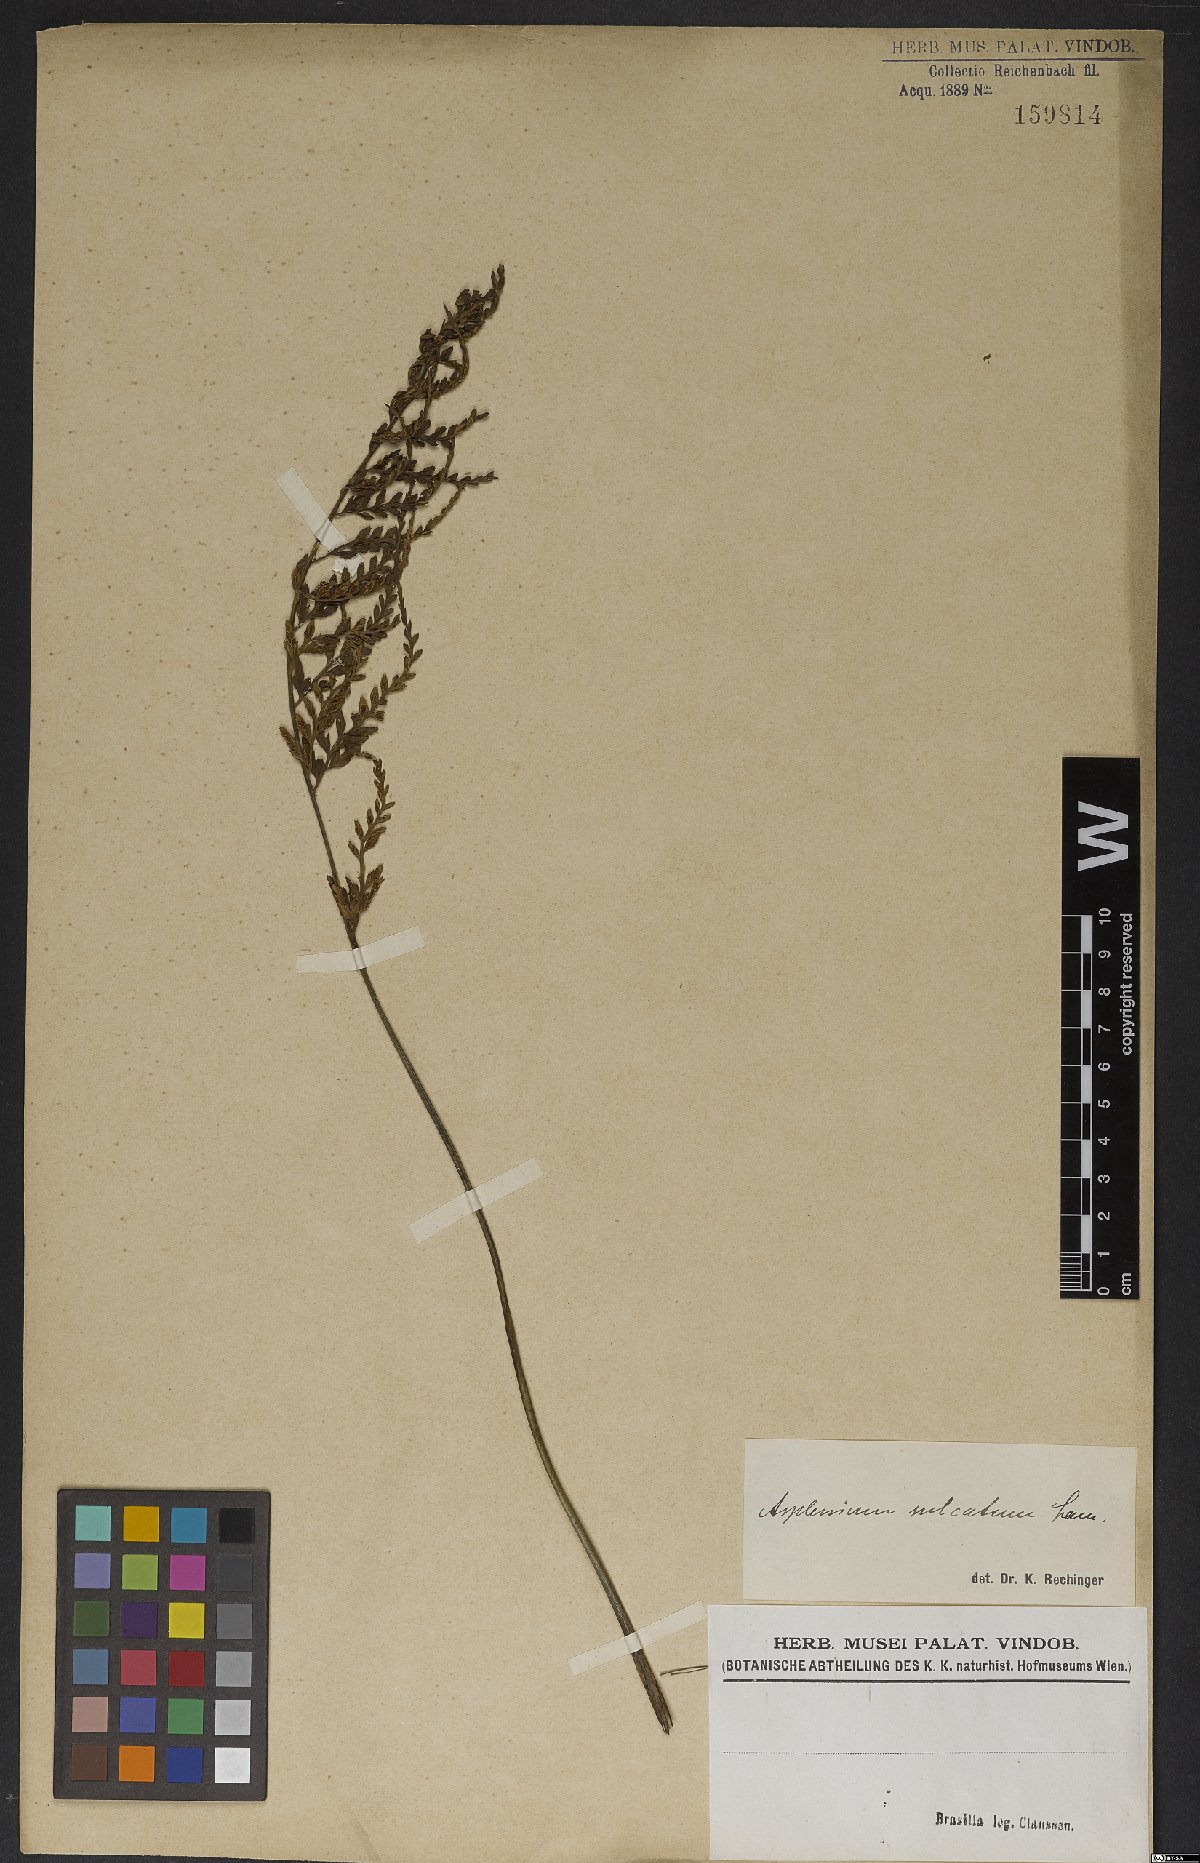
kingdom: Plantae
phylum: Tracheophyta
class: Polypodiopsida
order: Polypodiales
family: Aspleniaceae
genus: Asplenium
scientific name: Asplenium sulcatum
